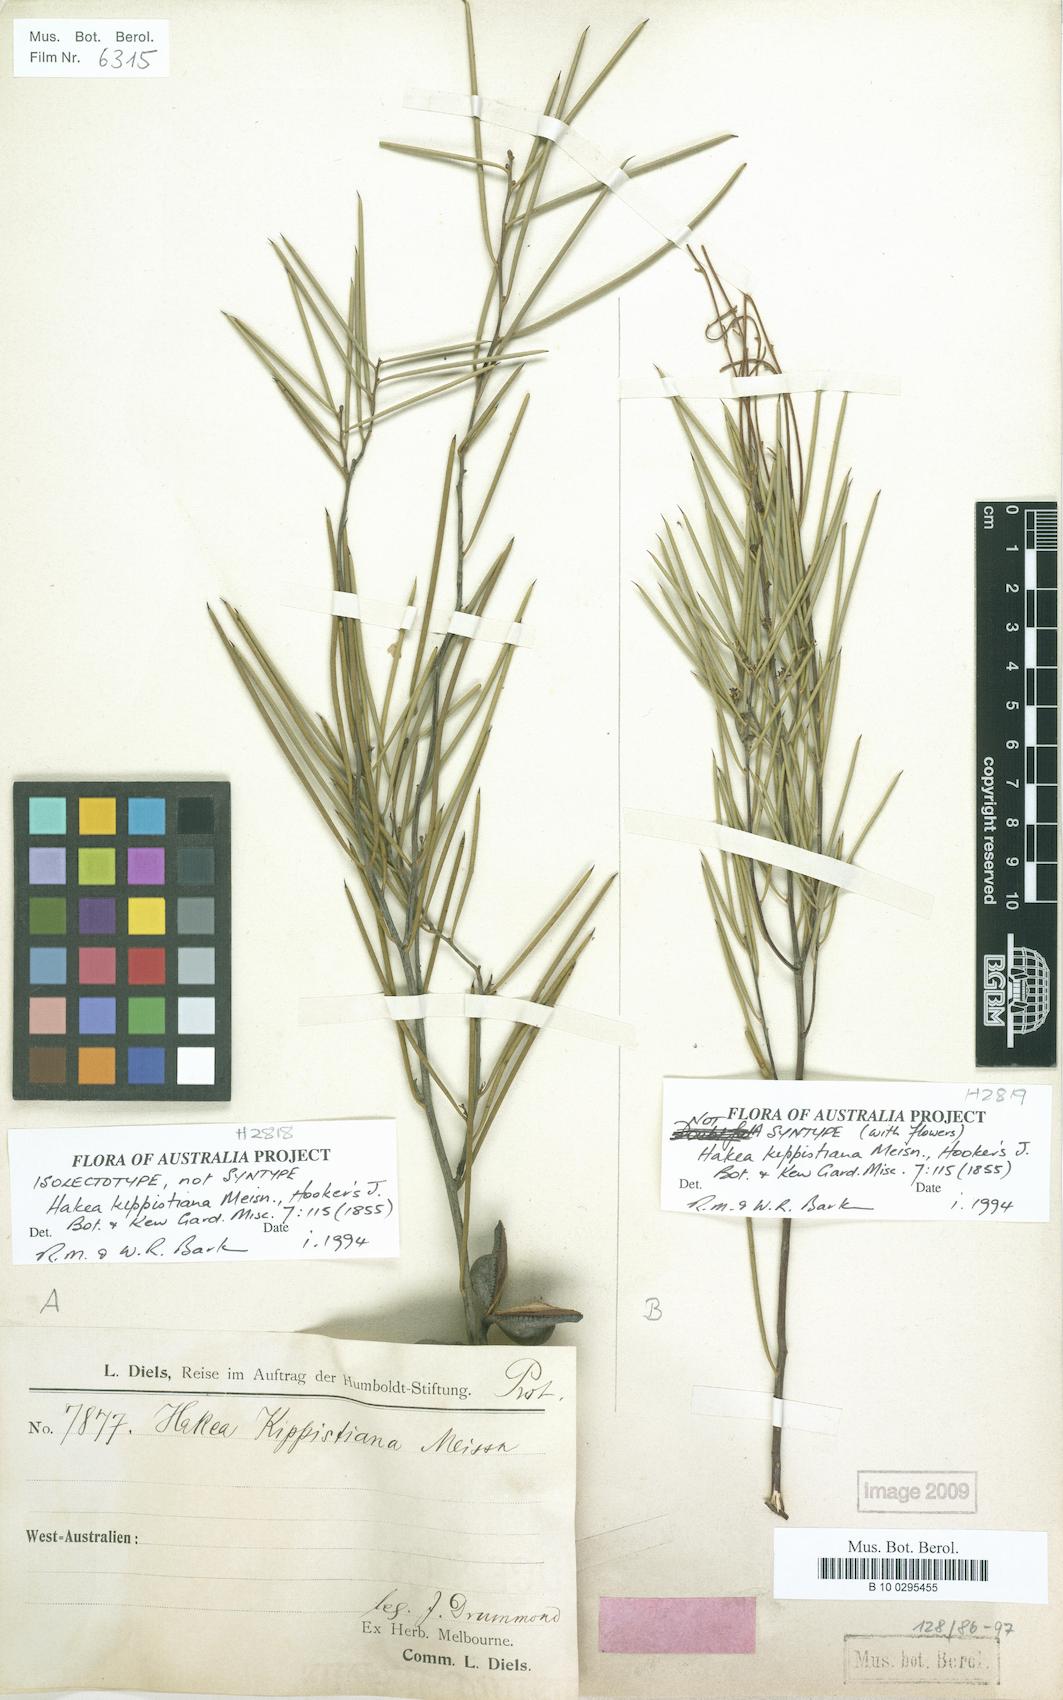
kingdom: Plantae
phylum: Tracheophyta
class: Magnoliopsida
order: Proteales
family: Proteaceae
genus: Hakea
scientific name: Hakea kippistiana
